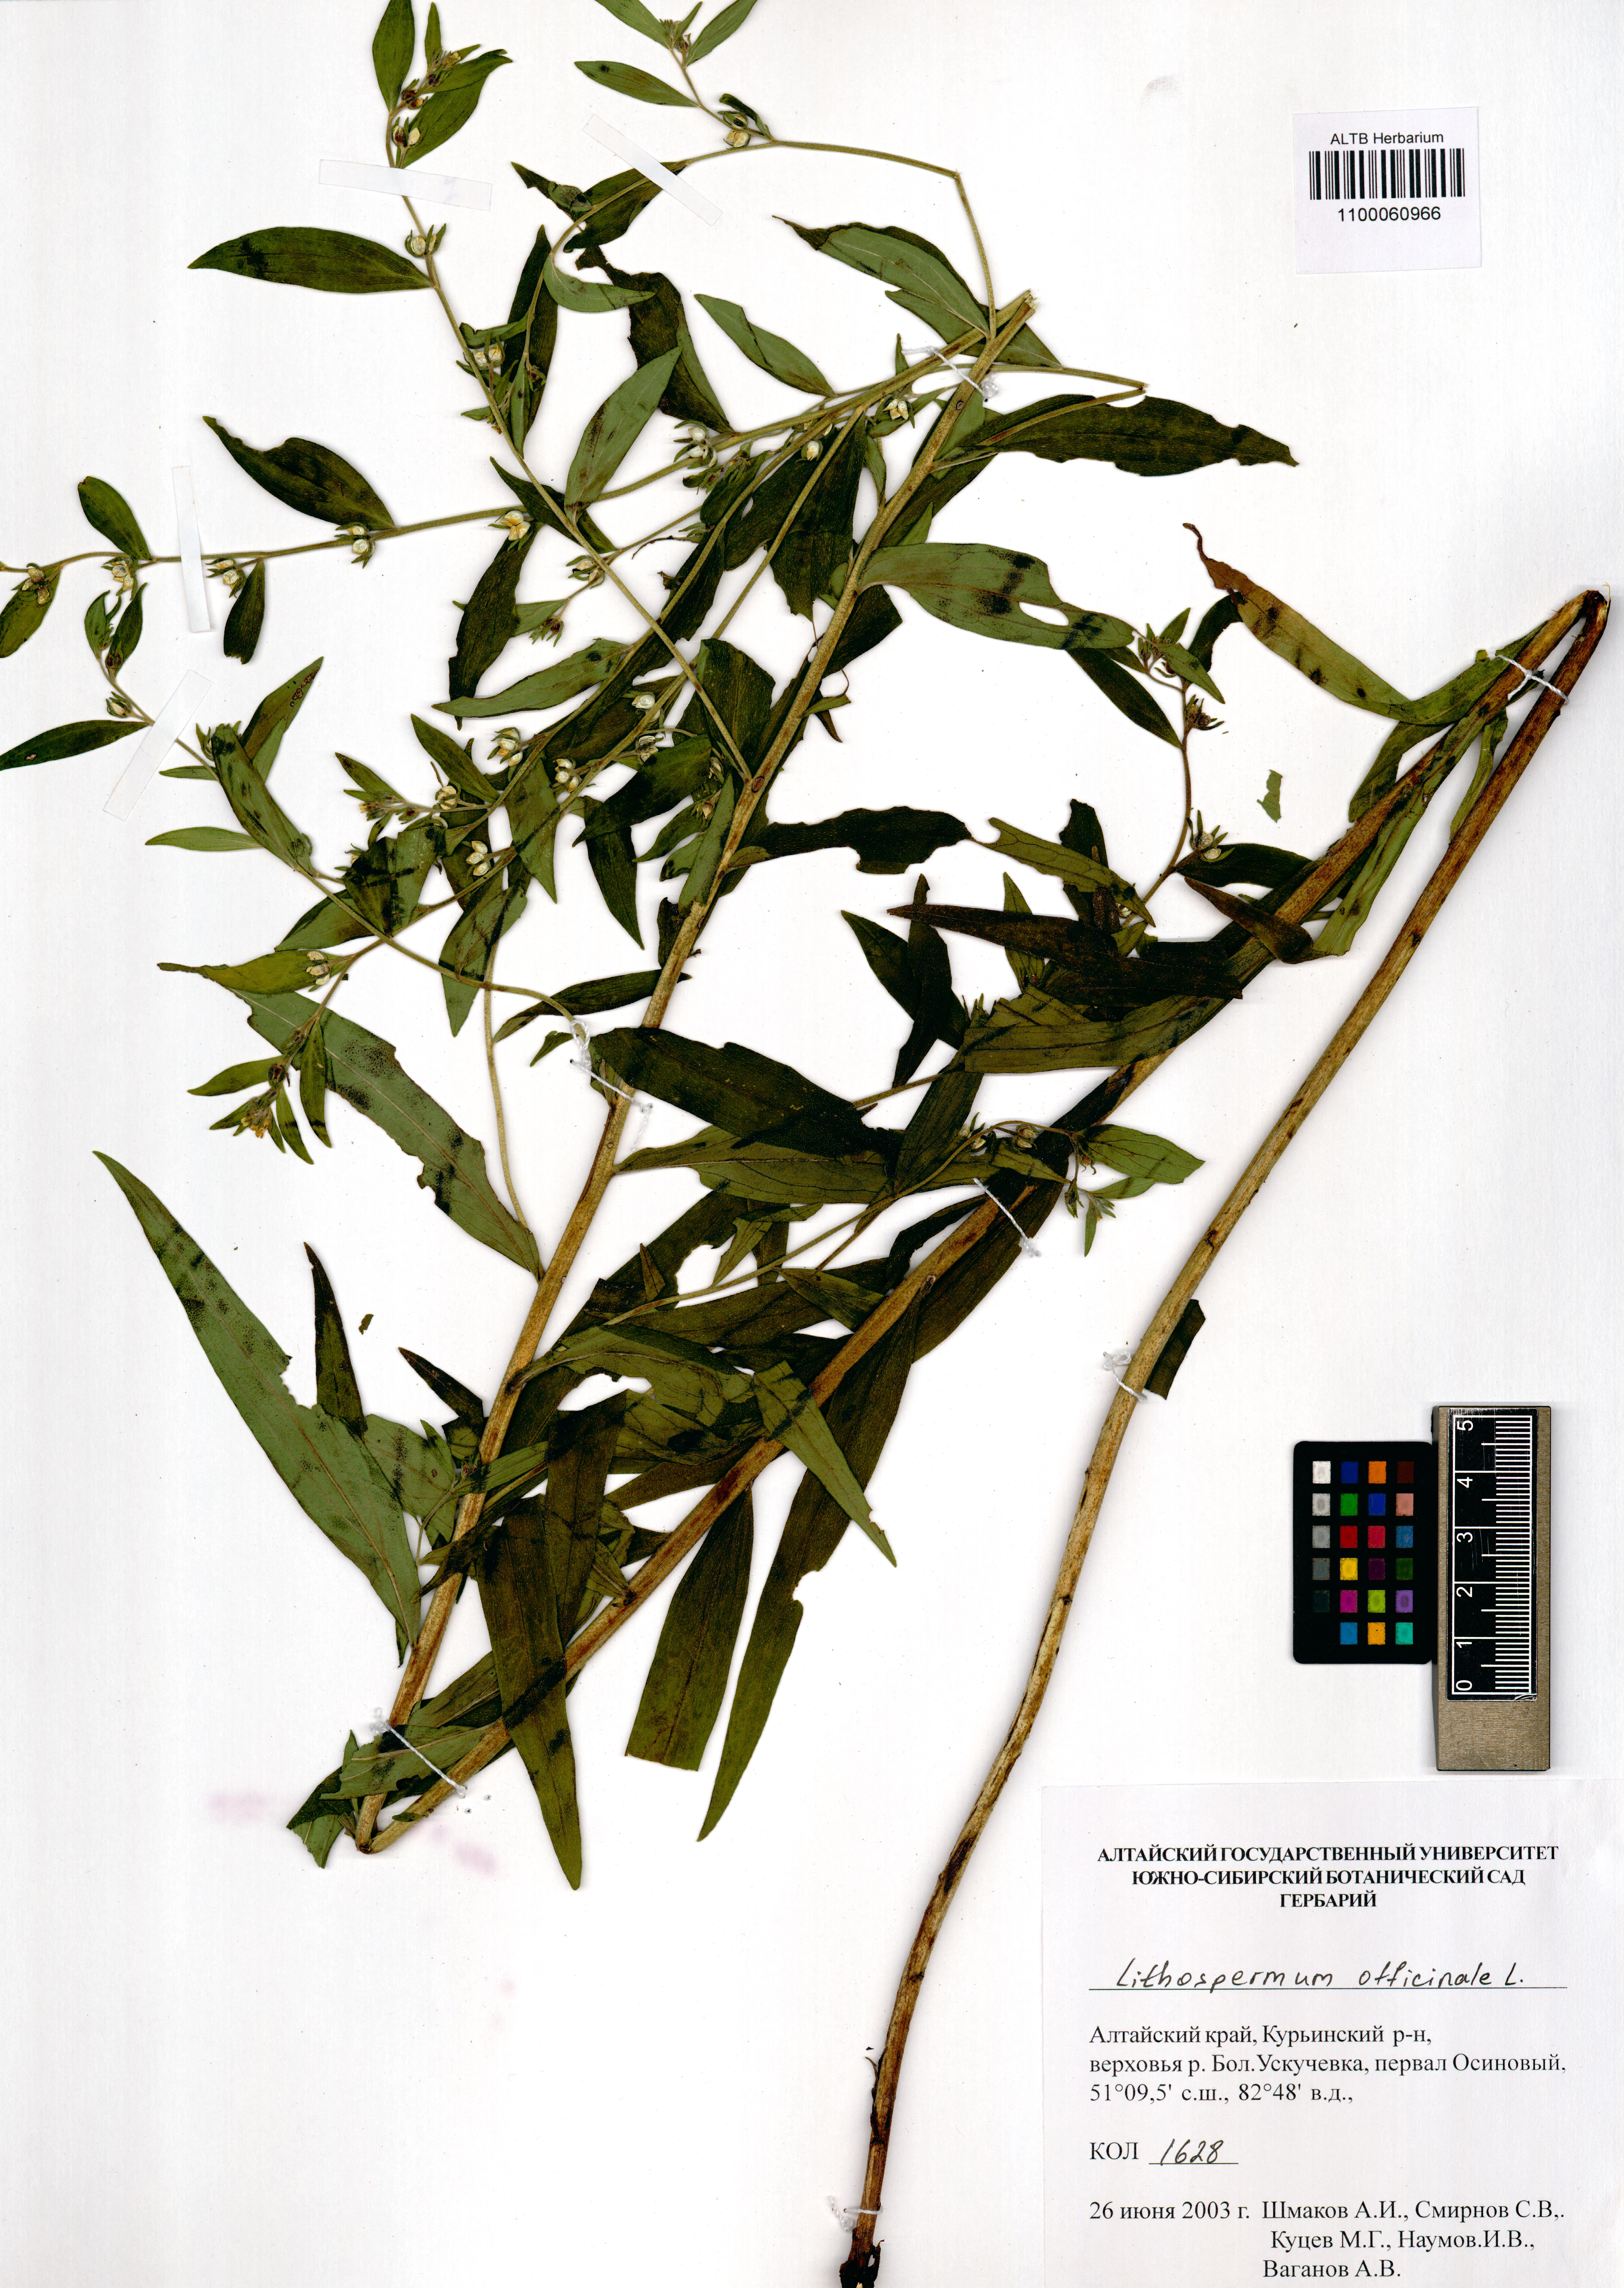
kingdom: Plantae
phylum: Tracheophyta
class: Magnoliopsida
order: Boraginales
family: Boraginaceae
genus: Lithospermum
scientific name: Lithospermum officinale
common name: Common gromwell
